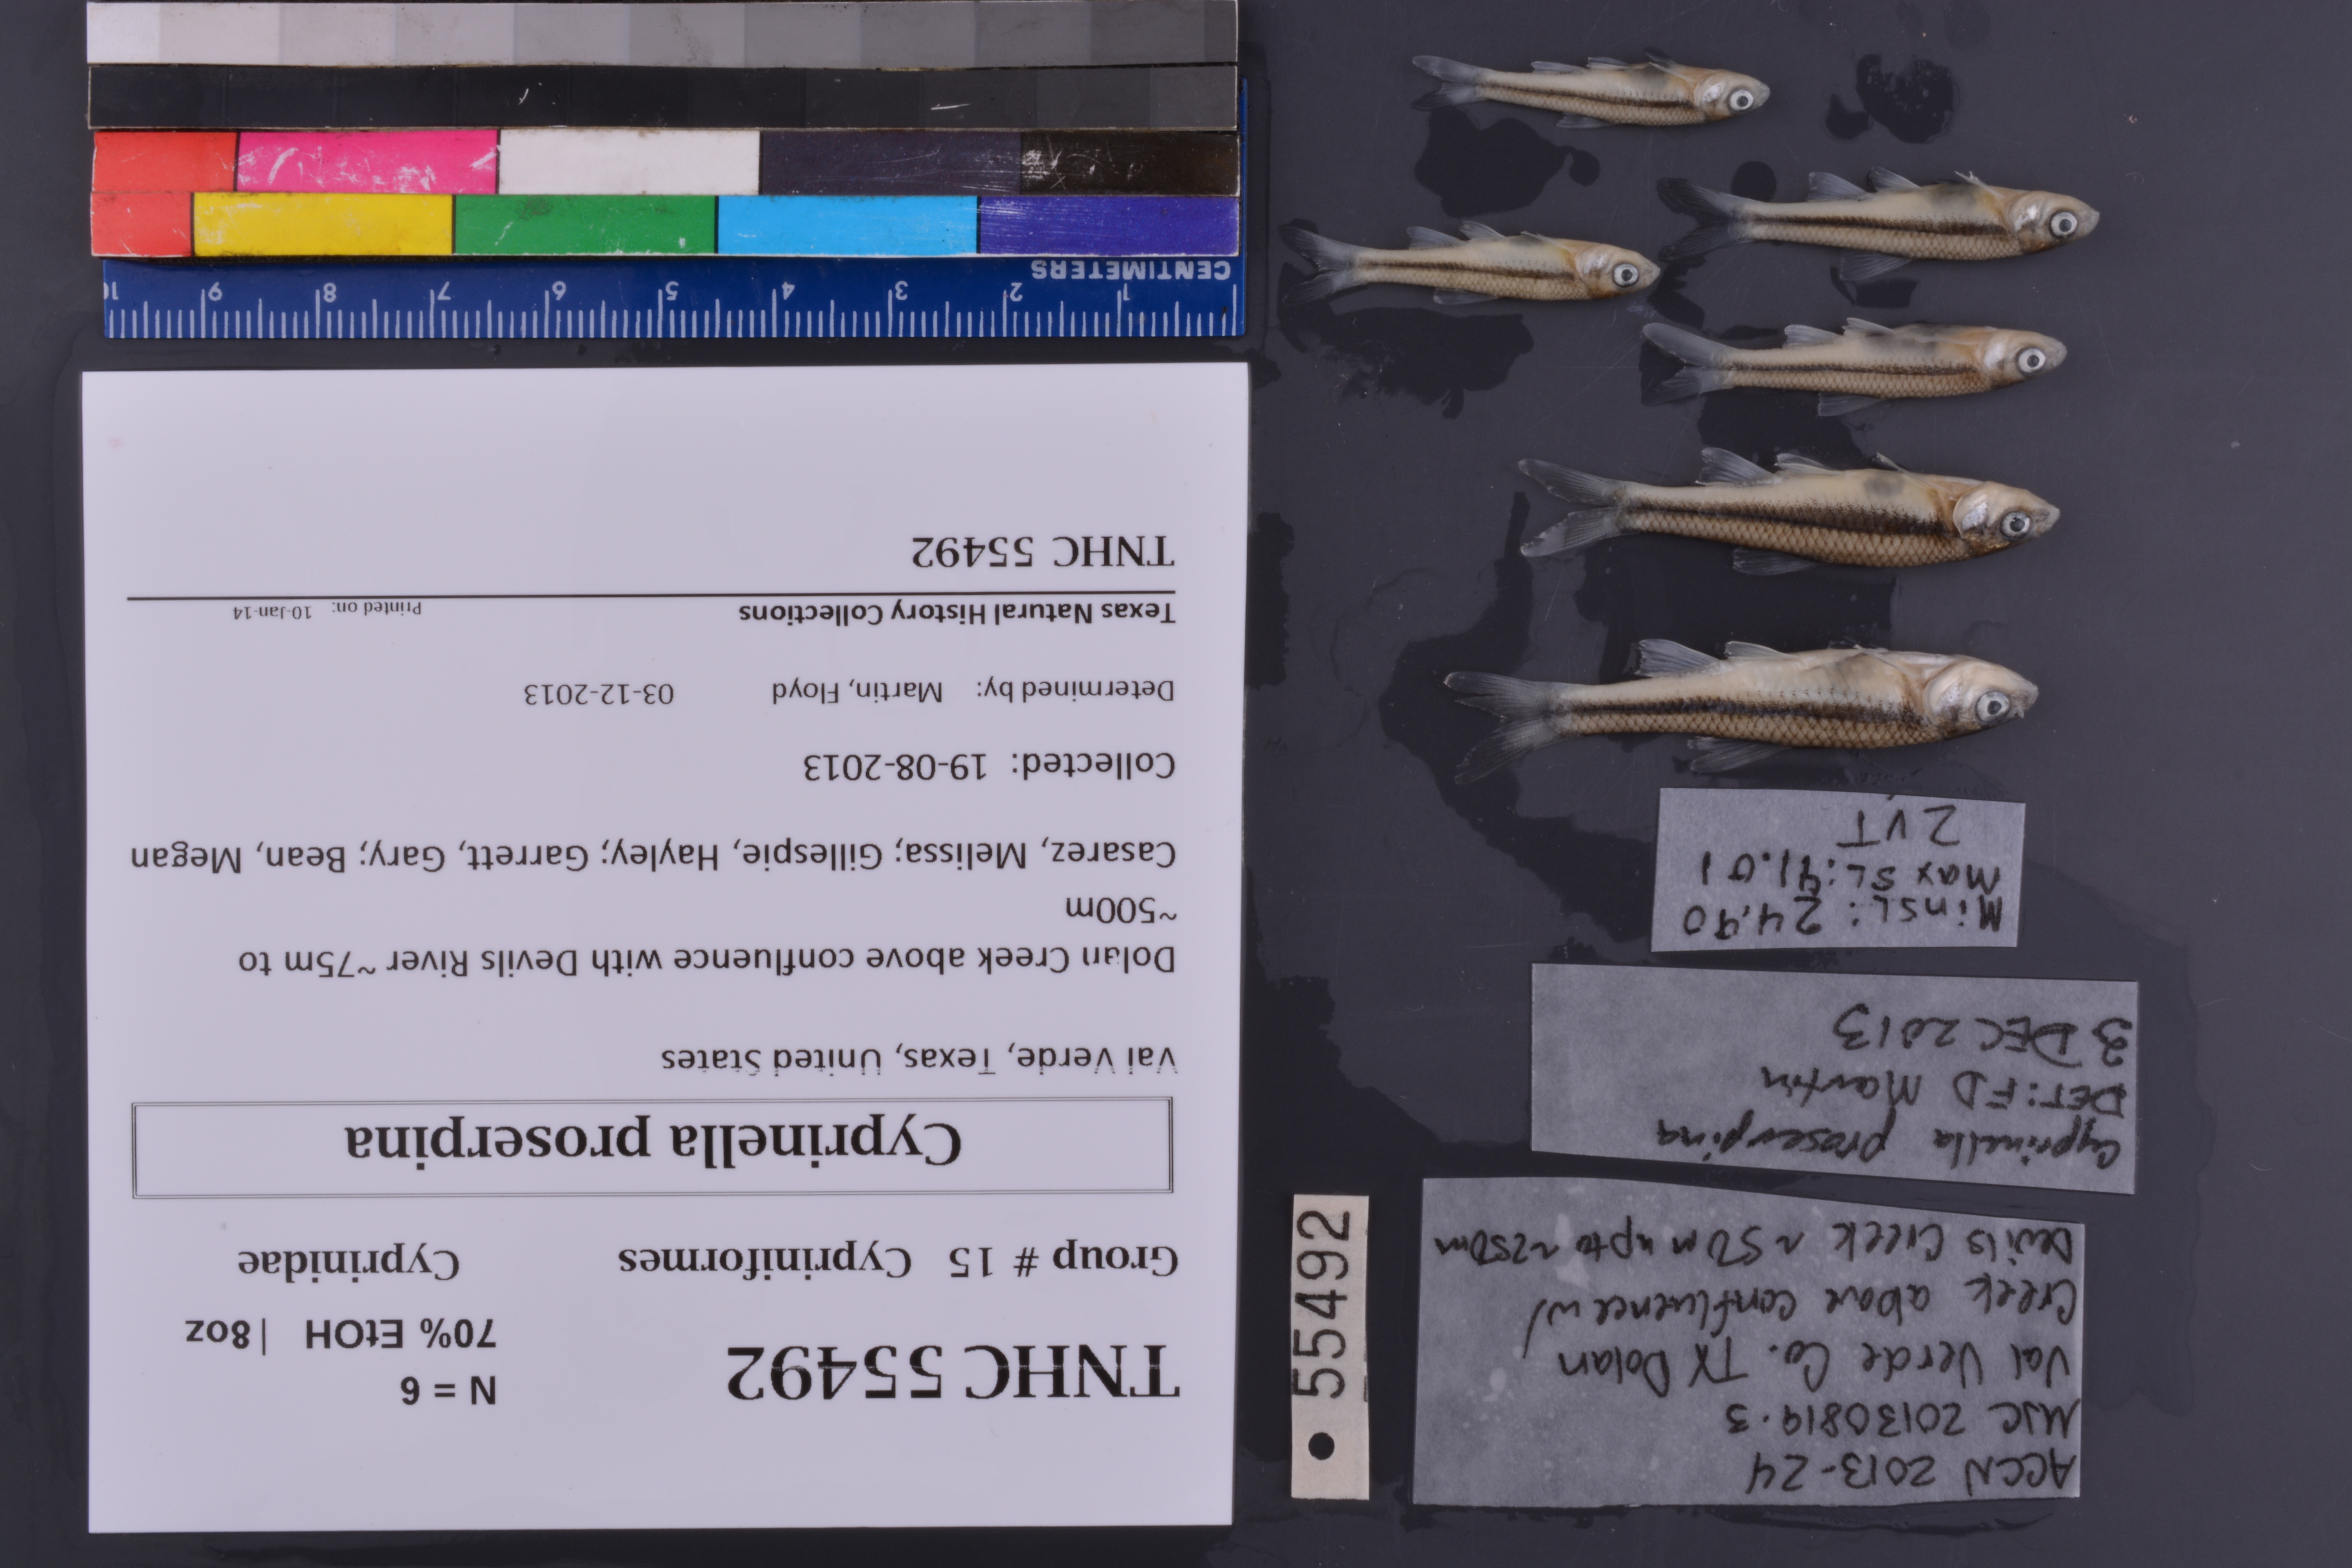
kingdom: Animalia
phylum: Chordata
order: Cypriniformes
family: Cyprinidae
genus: Cyprinella
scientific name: Cyprinella proserpina
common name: Proserpine shiner
